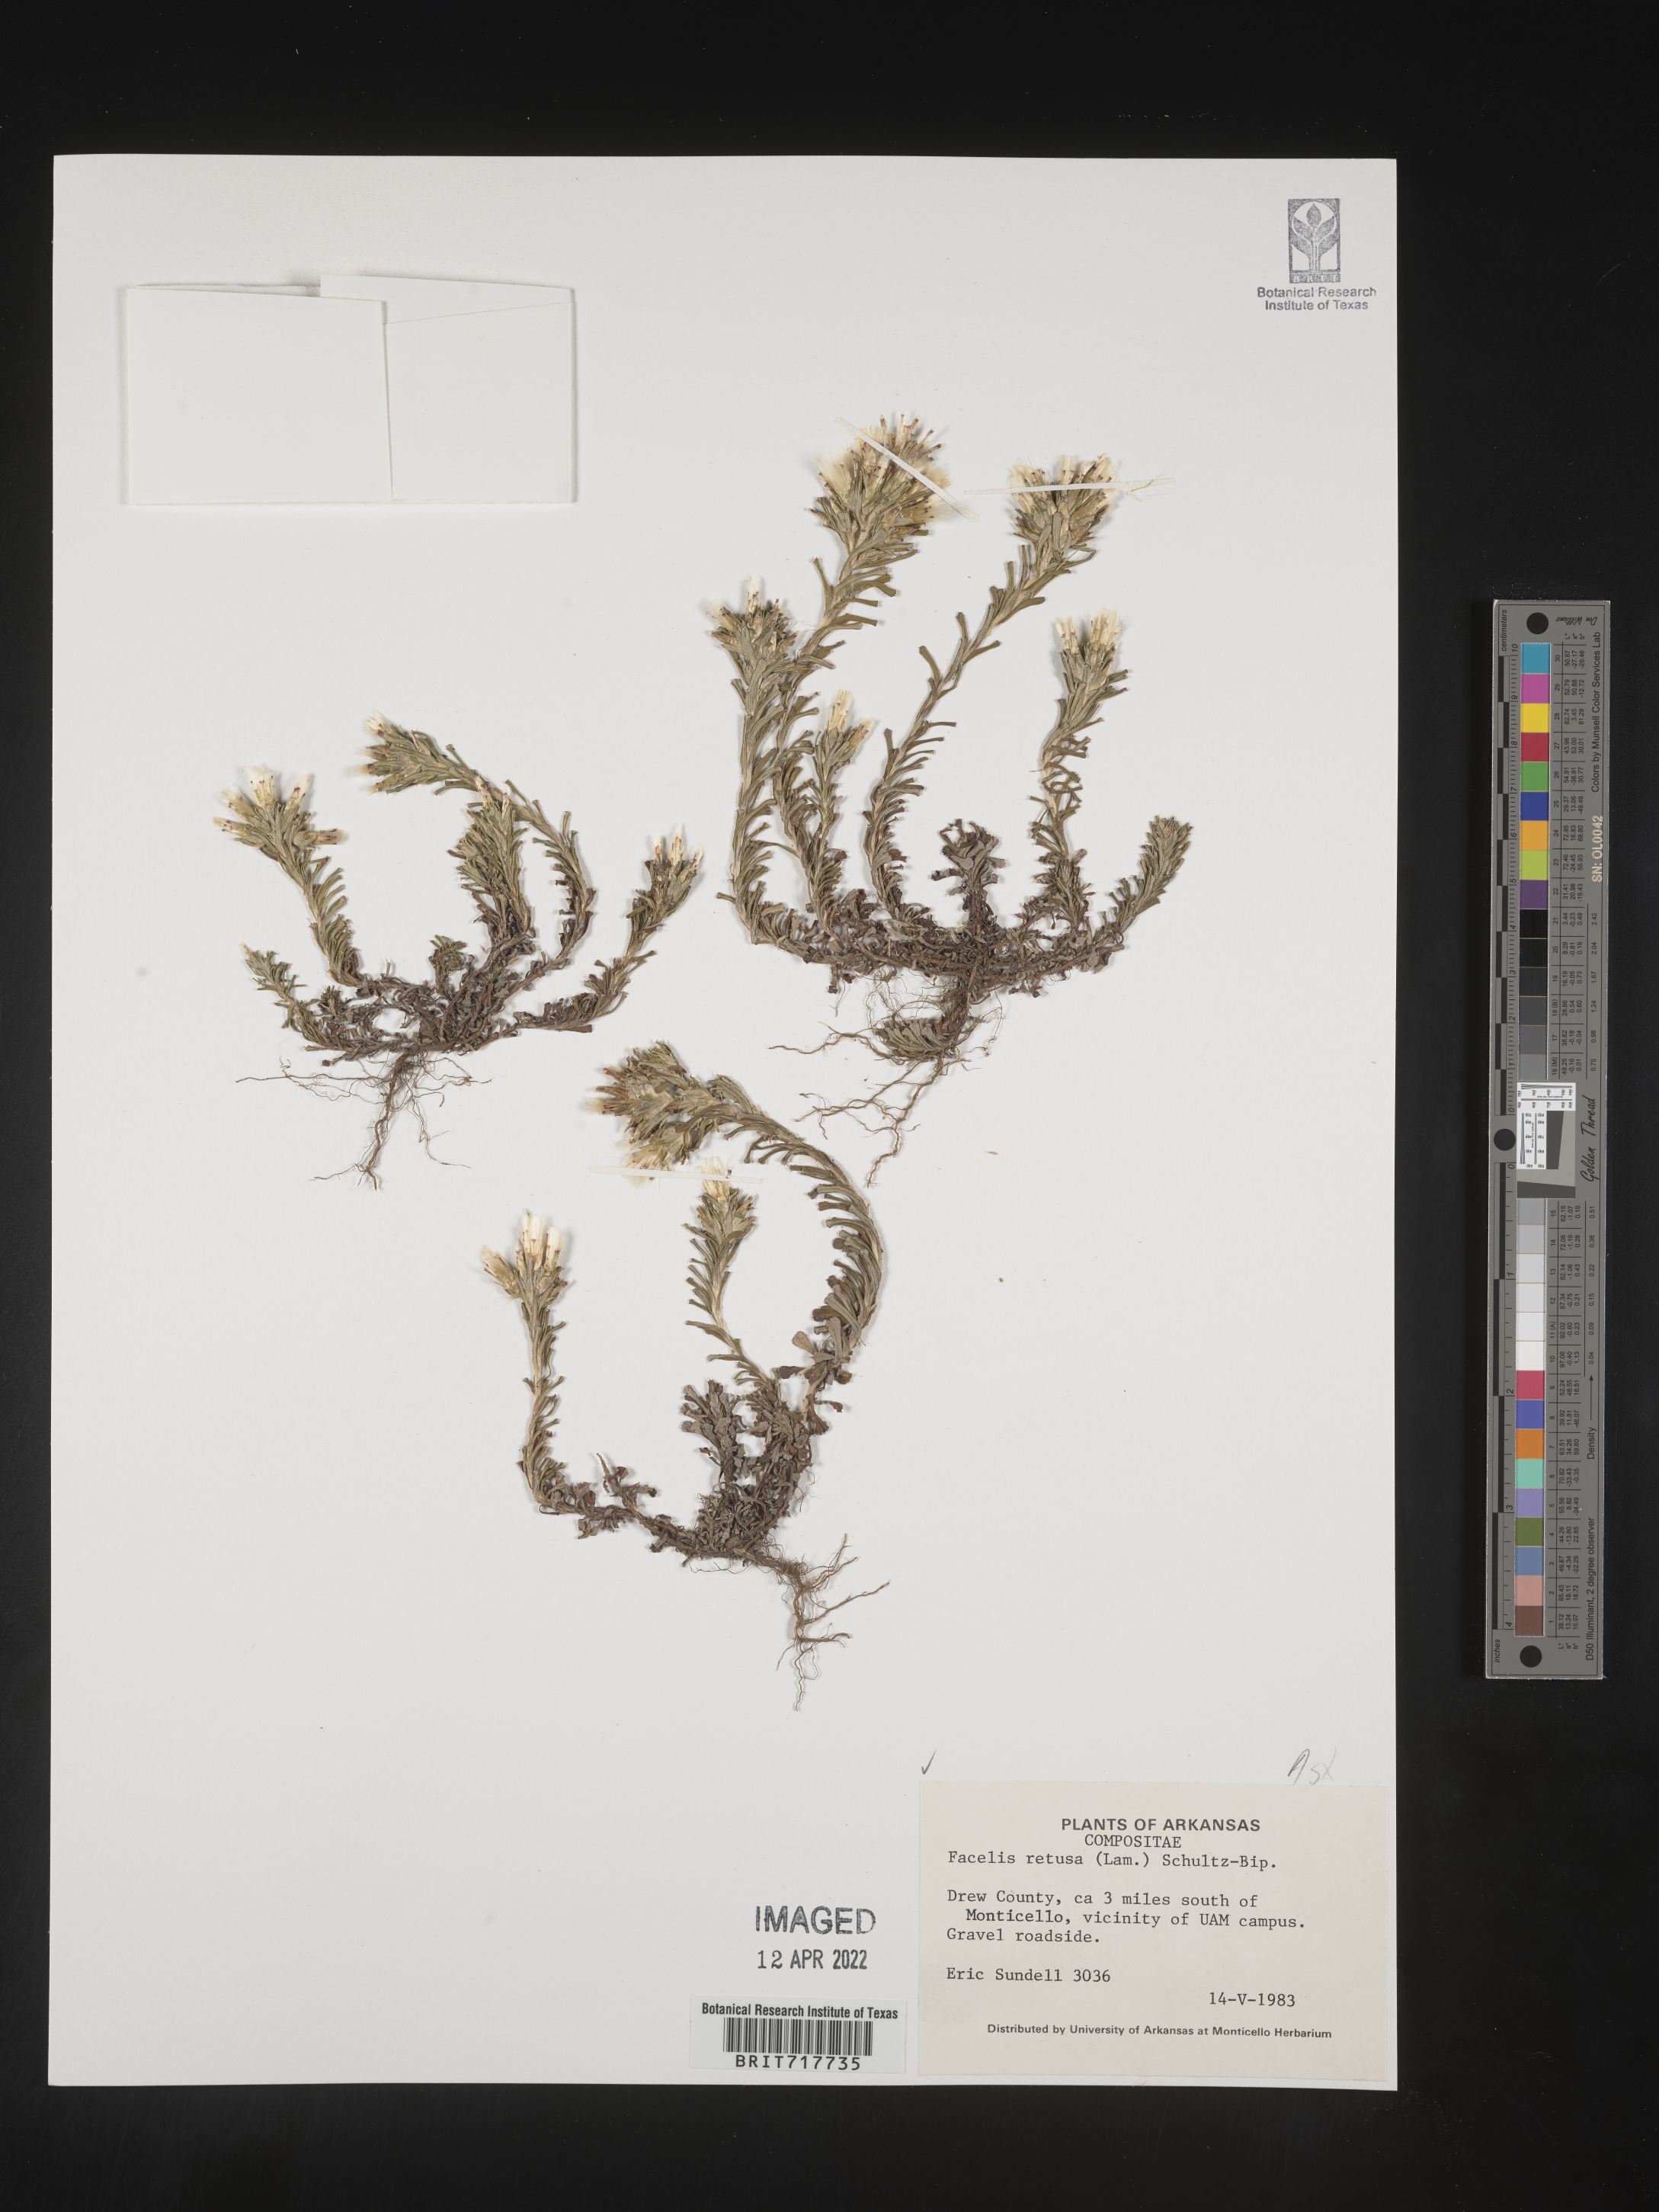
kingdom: Plantae
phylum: Tracheophyta
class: Magnoliopsida
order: Asterales
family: Asteraceae
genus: Facelis
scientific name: Facelis retusa
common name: Annual trampweed
